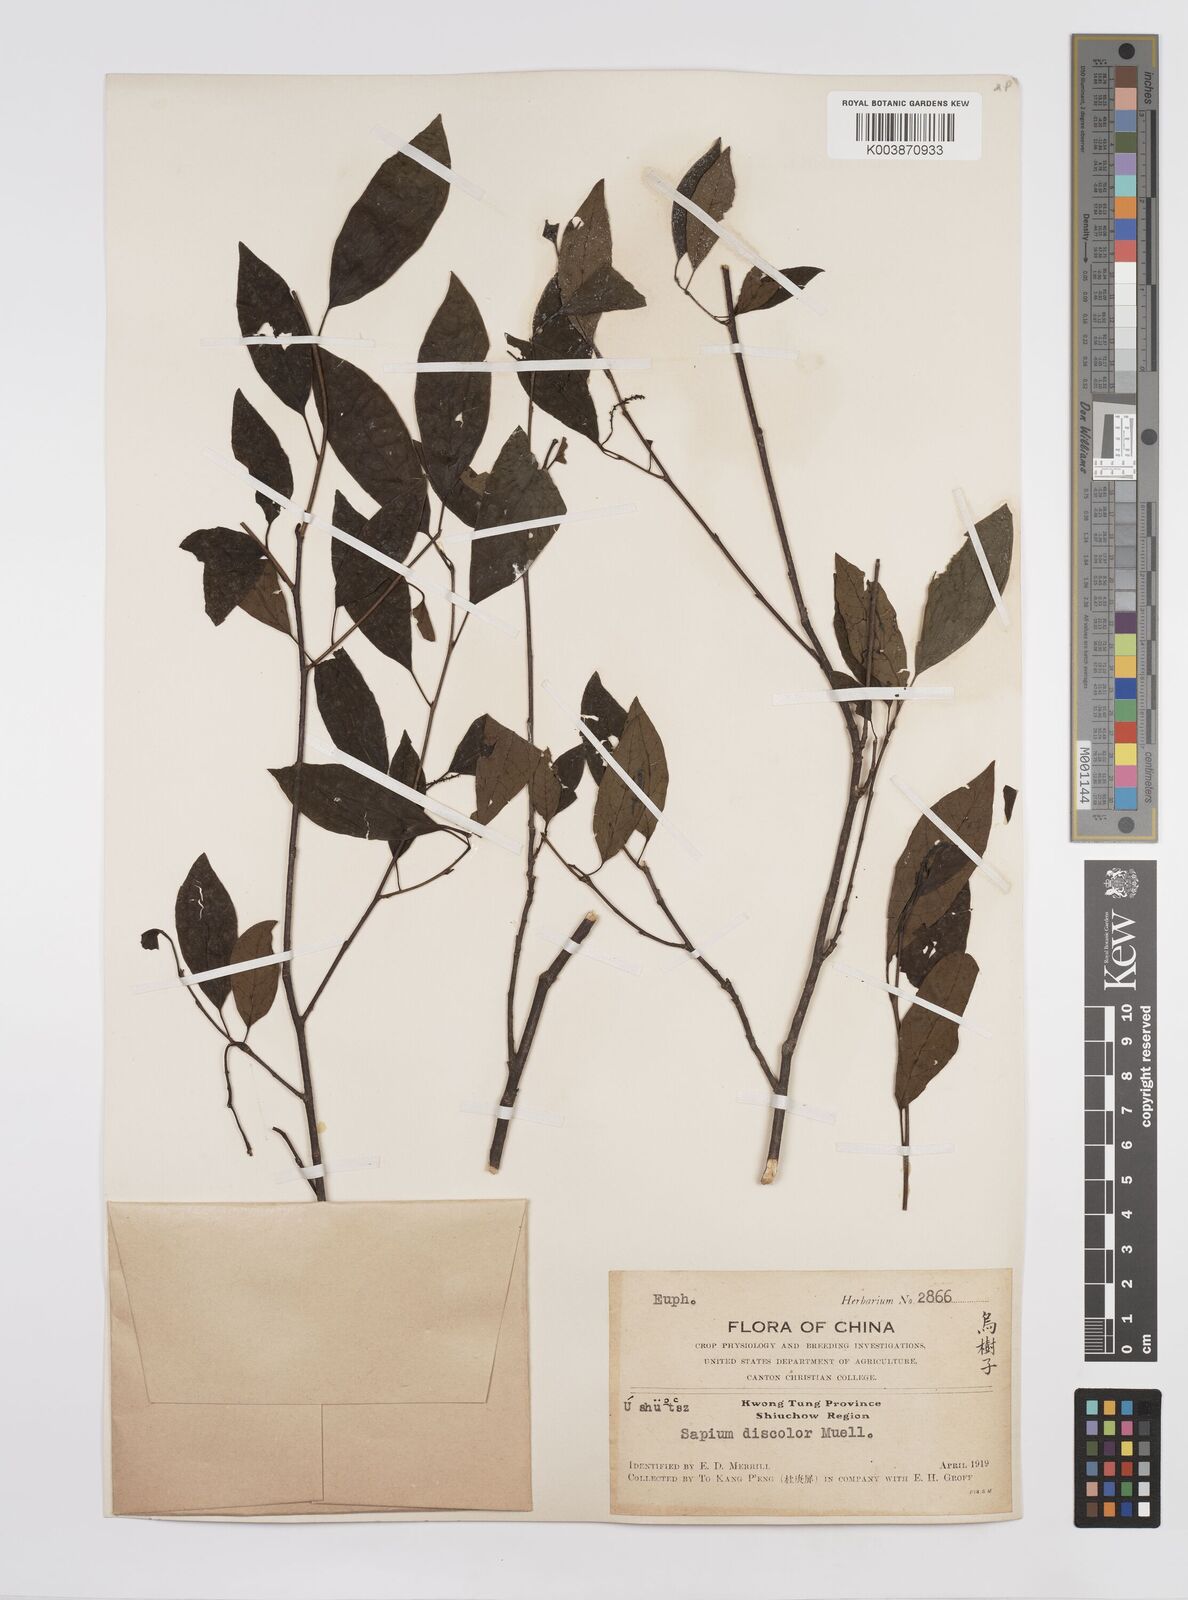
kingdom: Plantae
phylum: Tracheophyta
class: Magnoliopsida
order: Malpighiales
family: Euphorbiaceae
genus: Triadica
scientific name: Triadica cochinchinensis
